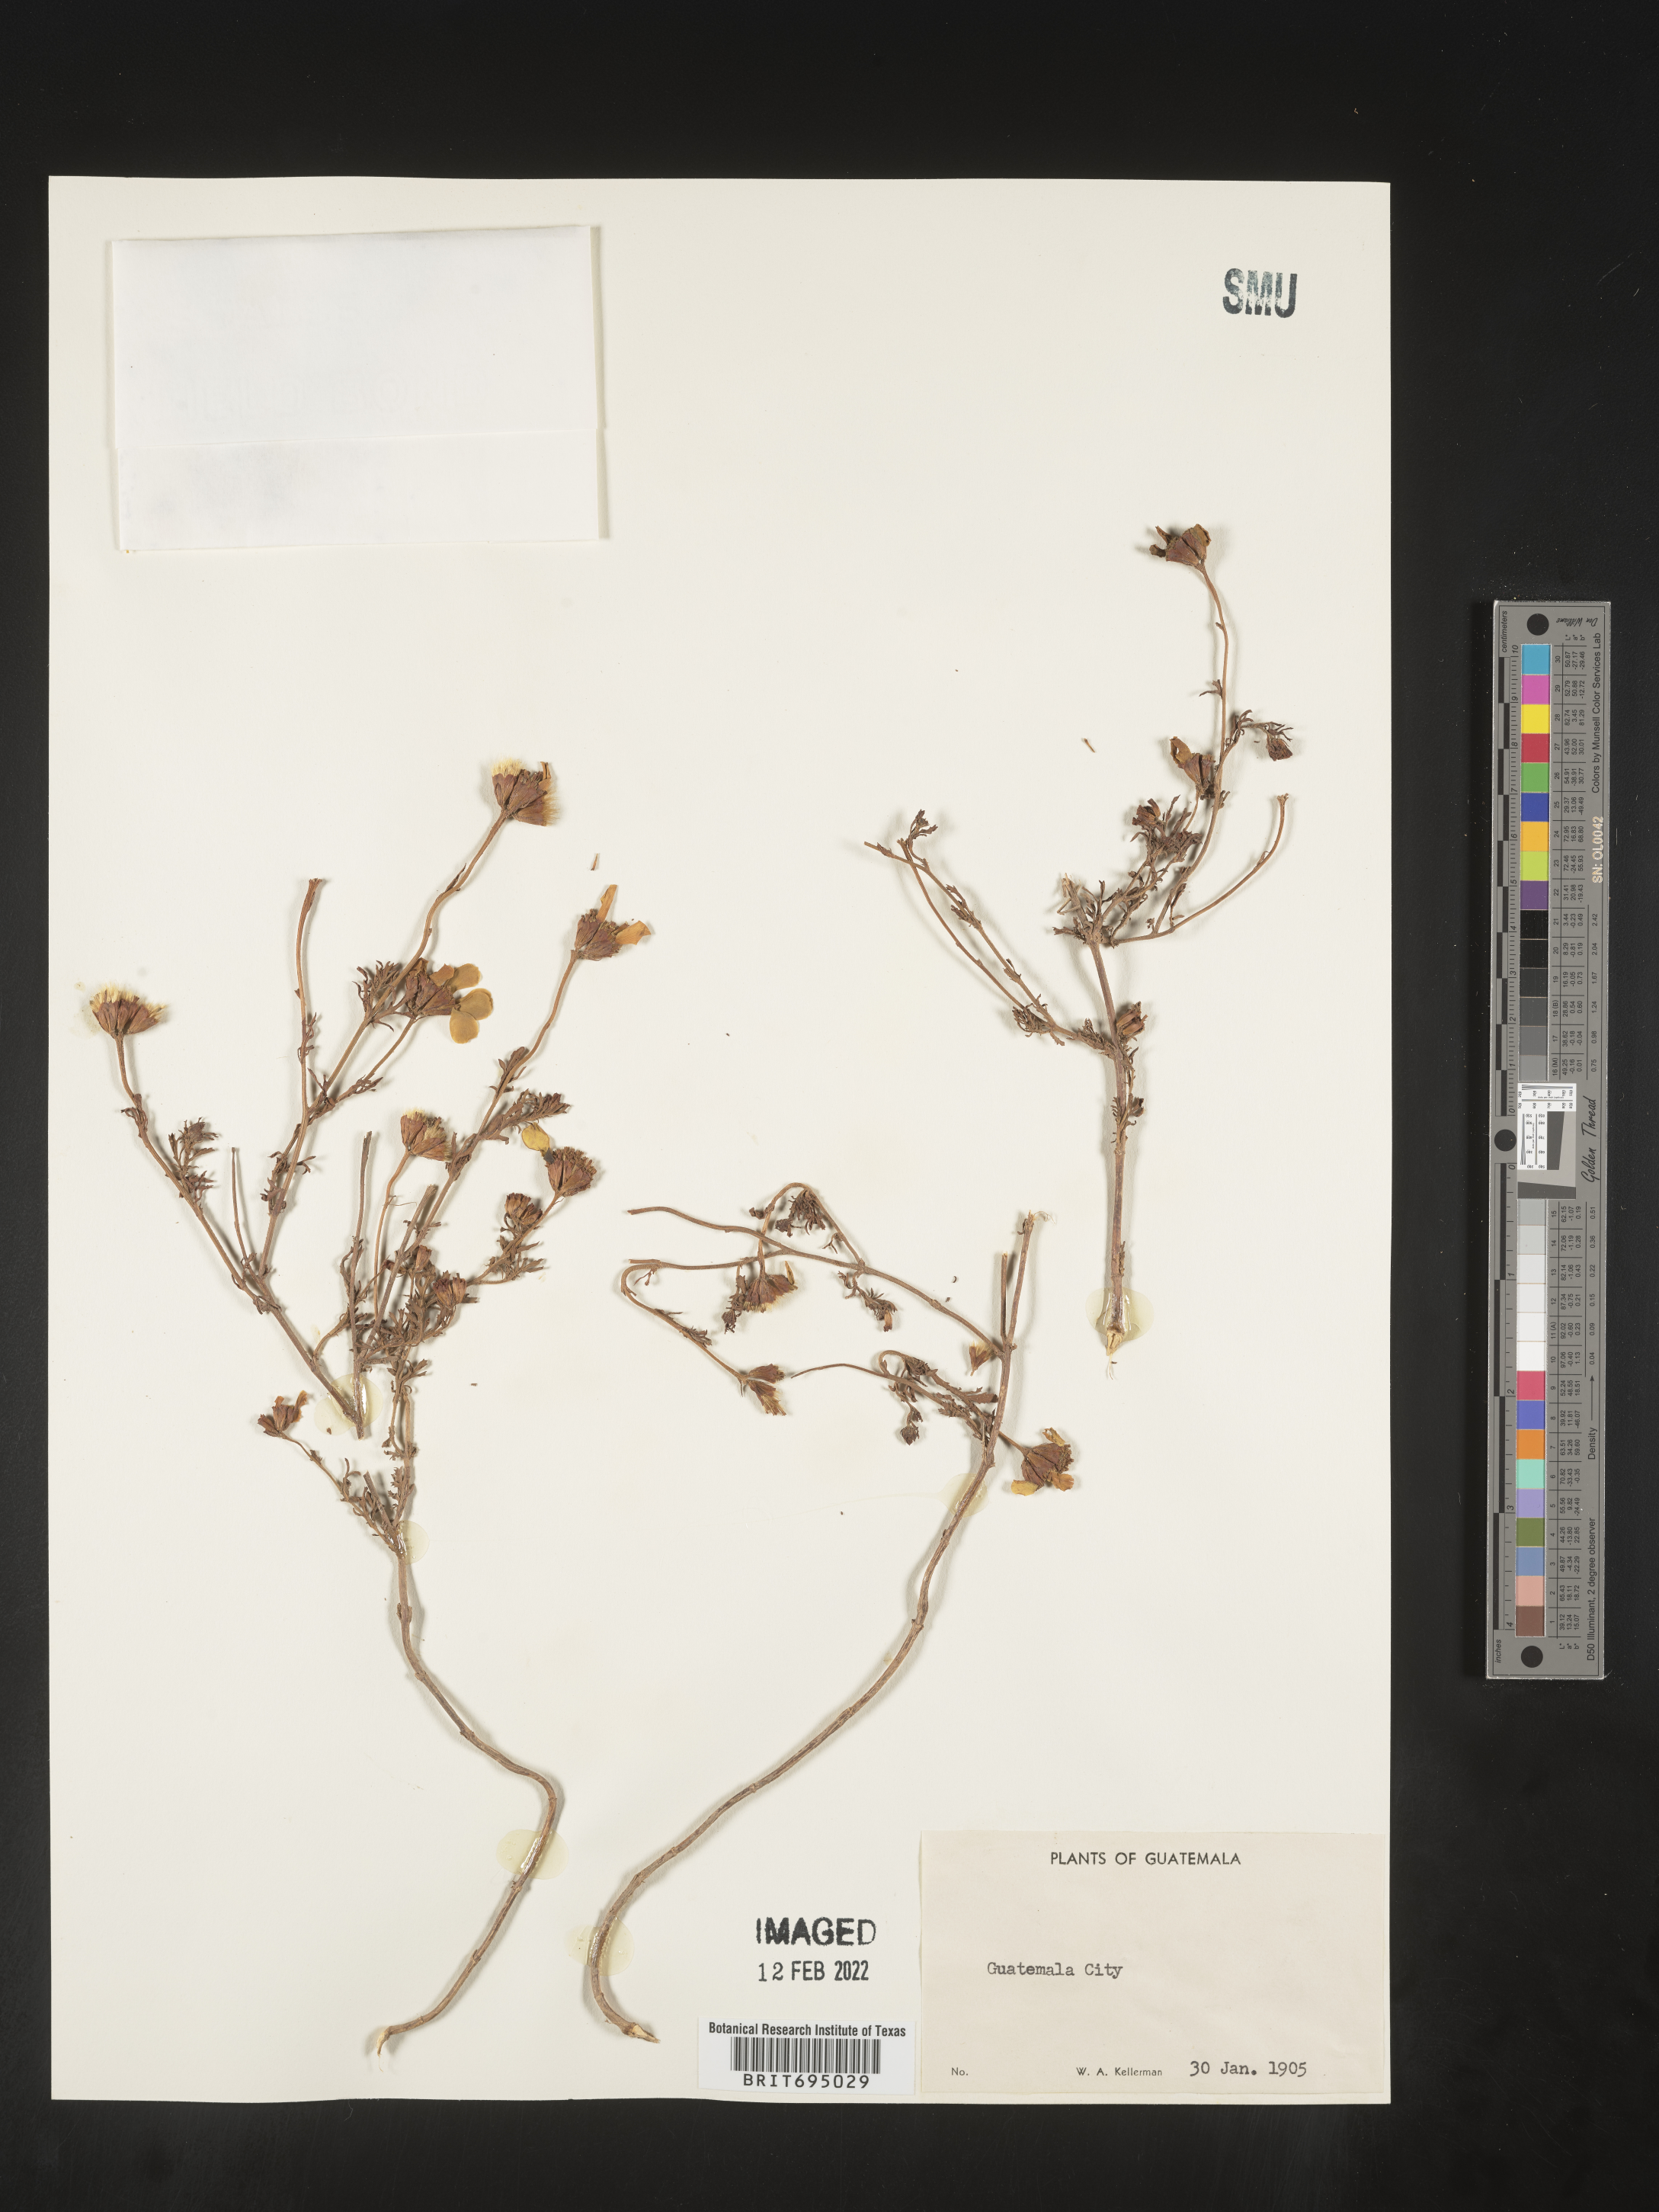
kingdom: Plantae
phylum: Tracheophyta
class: Magnoliopsida
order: Asterales
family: Asteraceae
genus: Dyssodia
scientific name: Dyssodia decipiens
